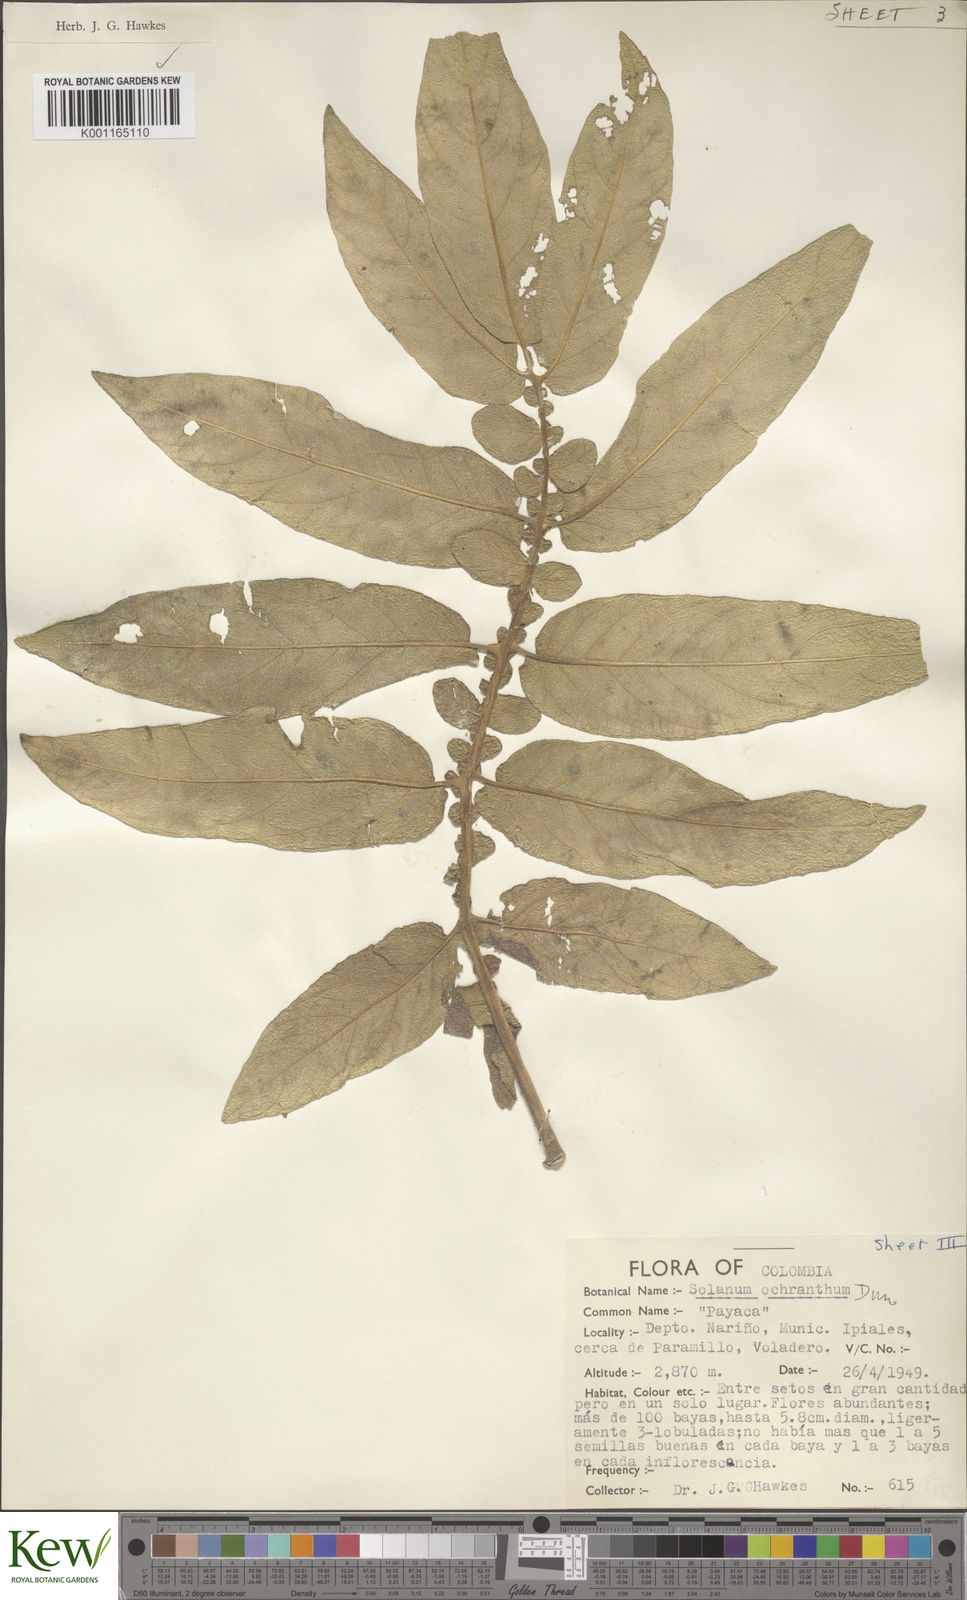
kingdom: Plantae
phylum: Tracheophyta
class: Magnoliopsida
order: Solanales
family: Solanaceae
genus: Solanum
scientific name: Solanum ochranthum
